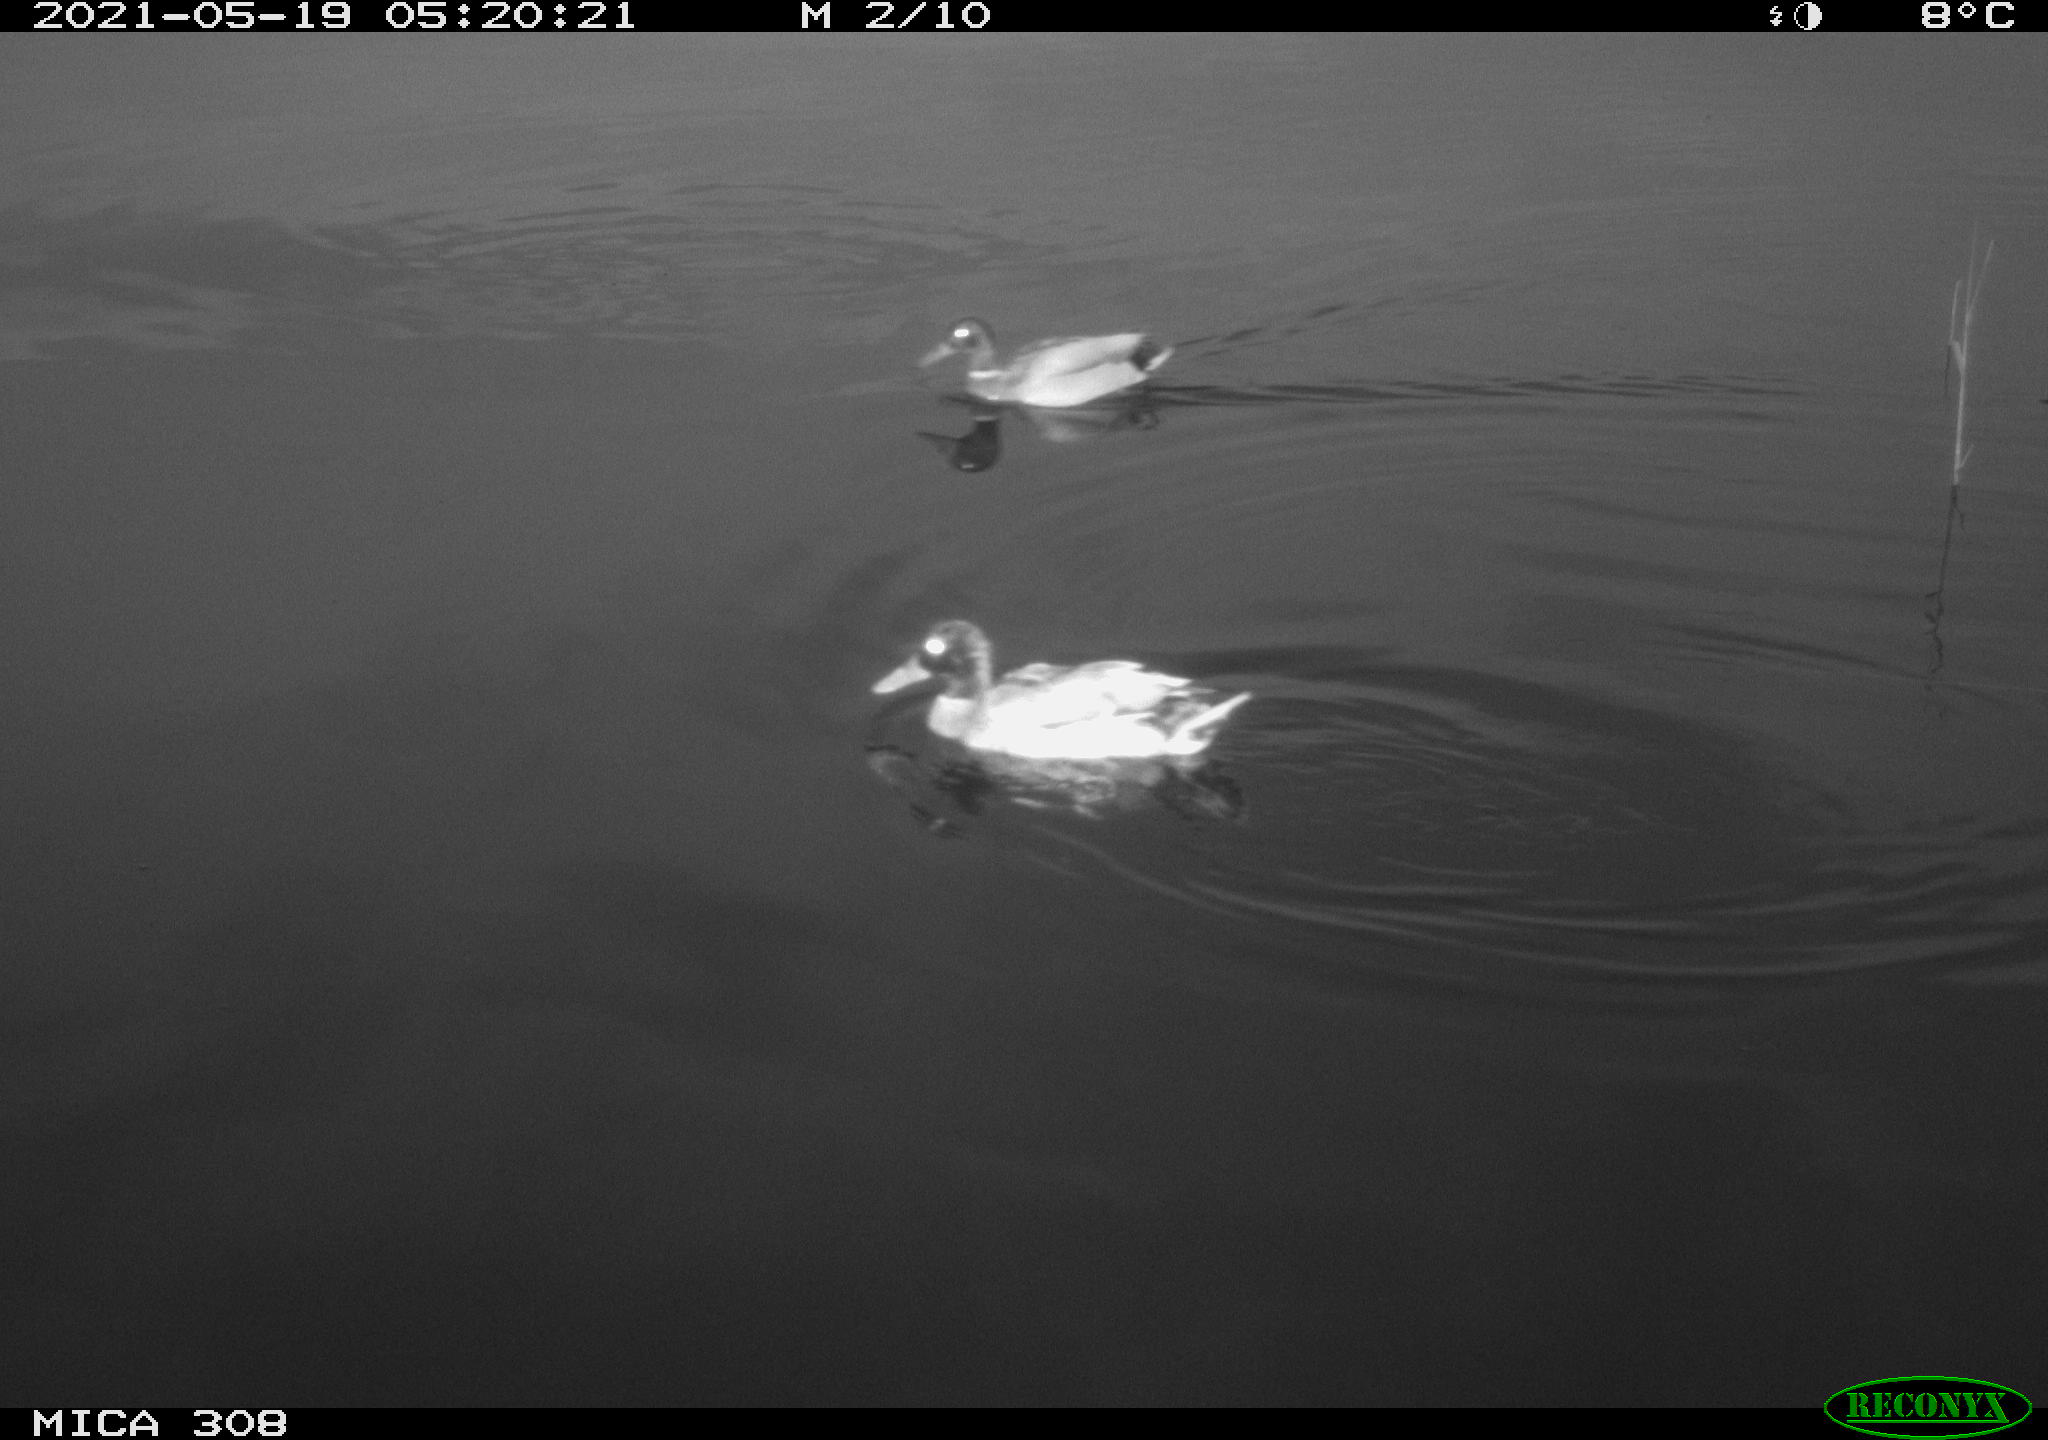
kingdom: Animalia
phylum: Chordata
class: Aves
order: Anseriformes
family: Anatidae
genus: Anas
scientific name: Anas platyrhynchos
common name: Mallard
